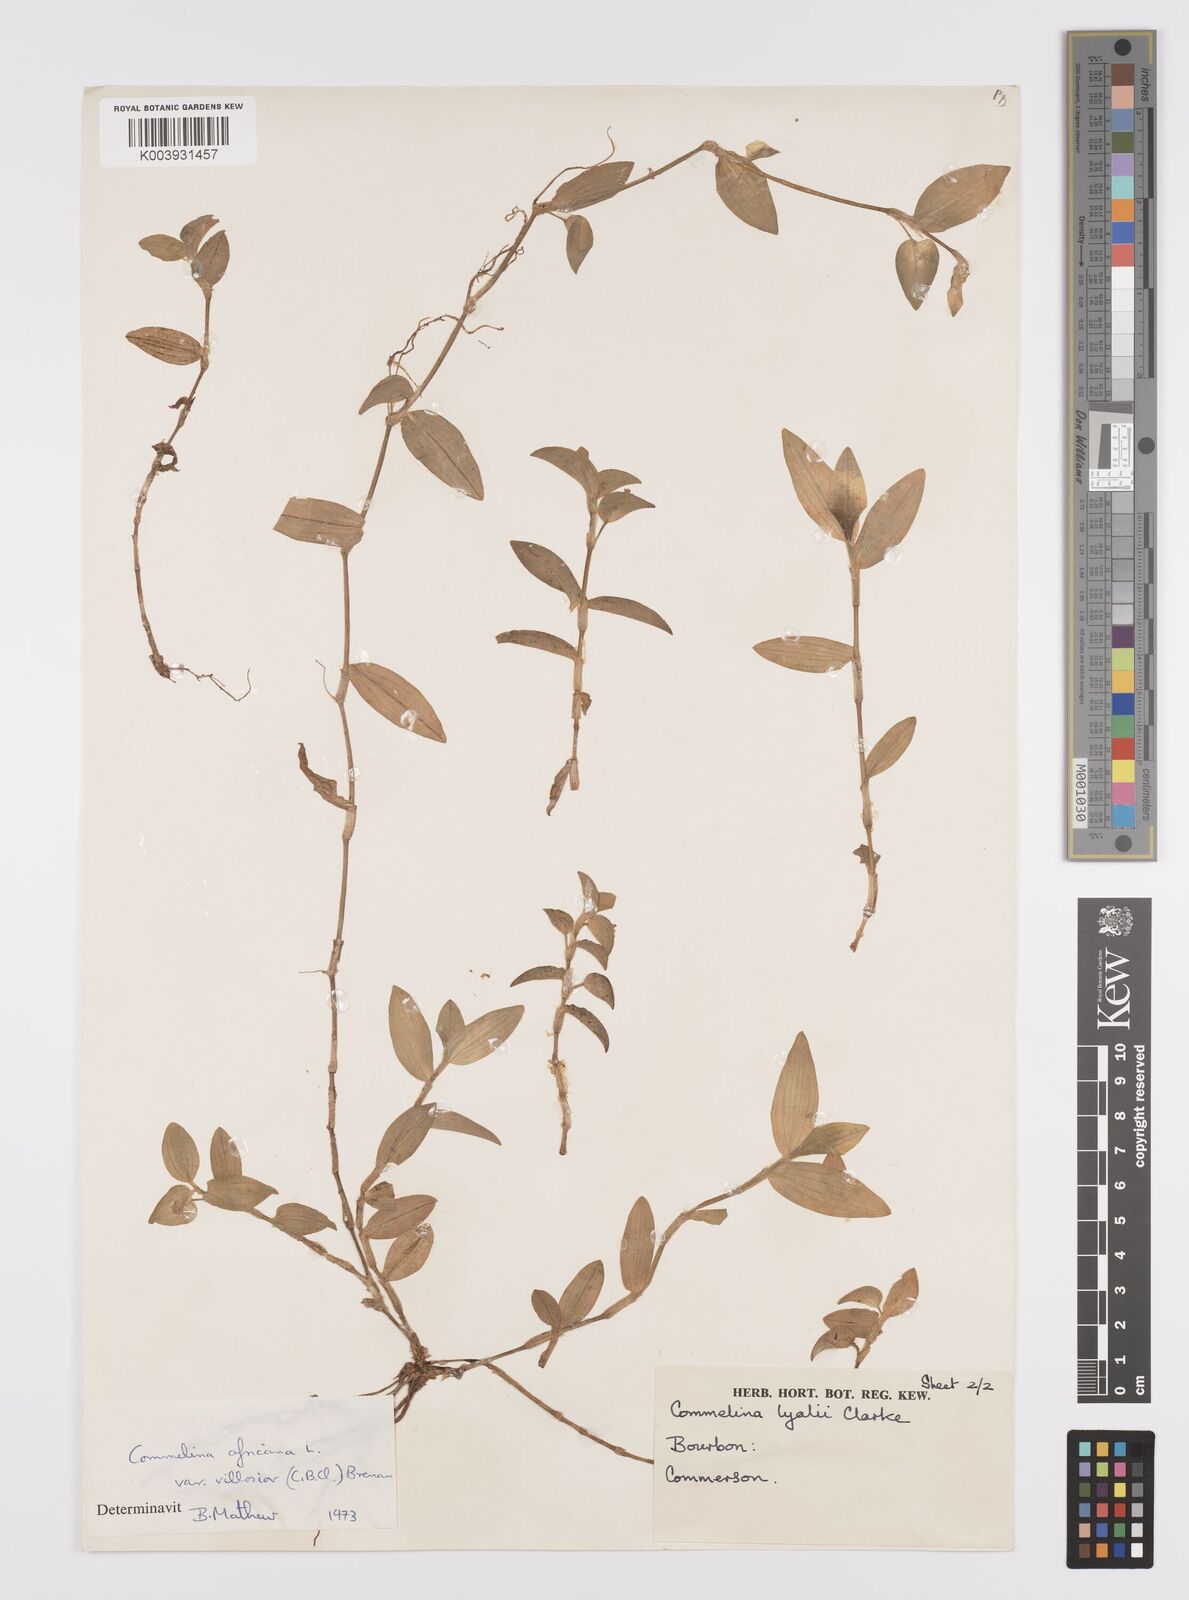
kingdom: Plantae
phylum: Tracheophyta
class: Liliopsida
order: Commelinales
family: Commelinaceae
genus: Commelina
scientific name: Commelina africana
